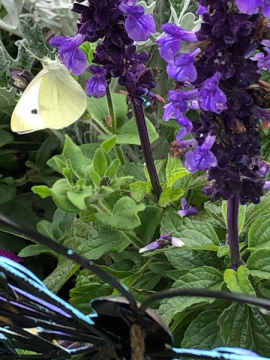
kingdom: Animalia
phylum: Arthropoda
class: Insecta
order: Lepidoptera
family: Pieridae
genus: Pieris
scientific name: Pieris rapae
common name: Cabbage White
